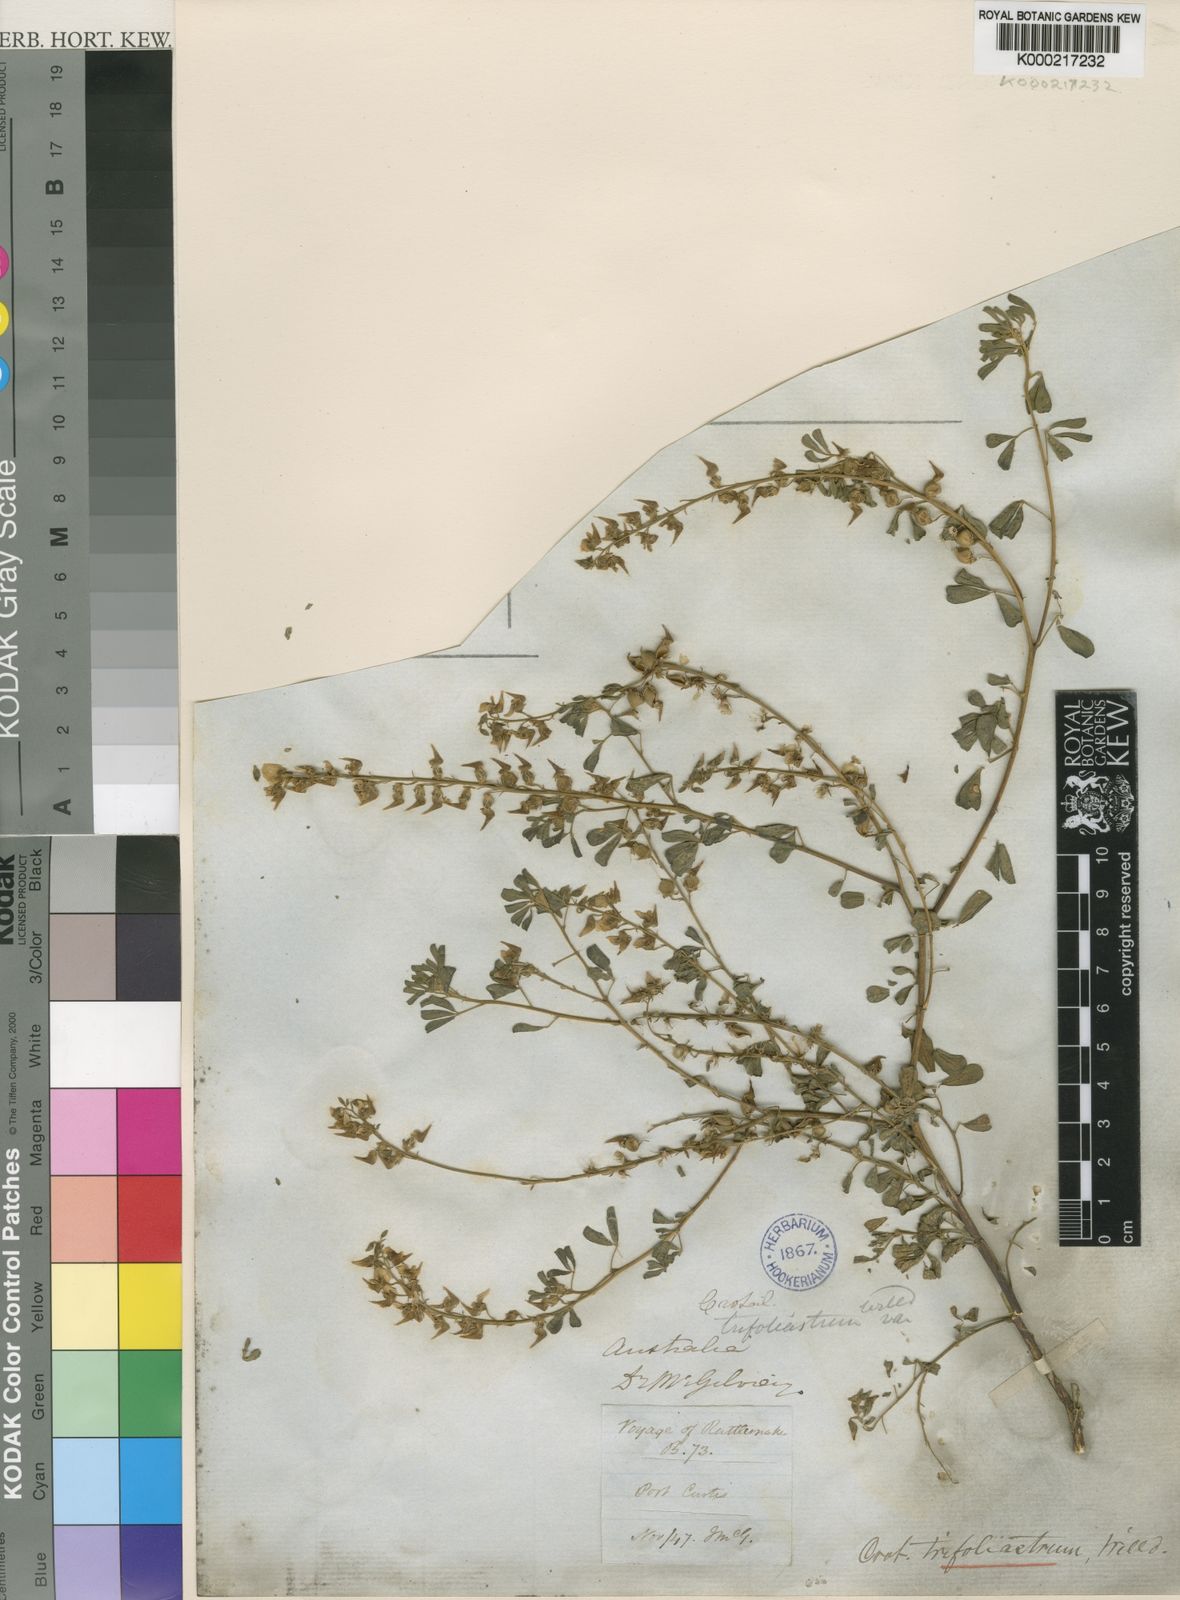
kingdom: Plantae
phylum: Tracheophyta
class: Magnoliopsida
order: Fabales
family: Fabaceae
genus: Crotalaria
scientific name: Crotalaria trifoliastrum
